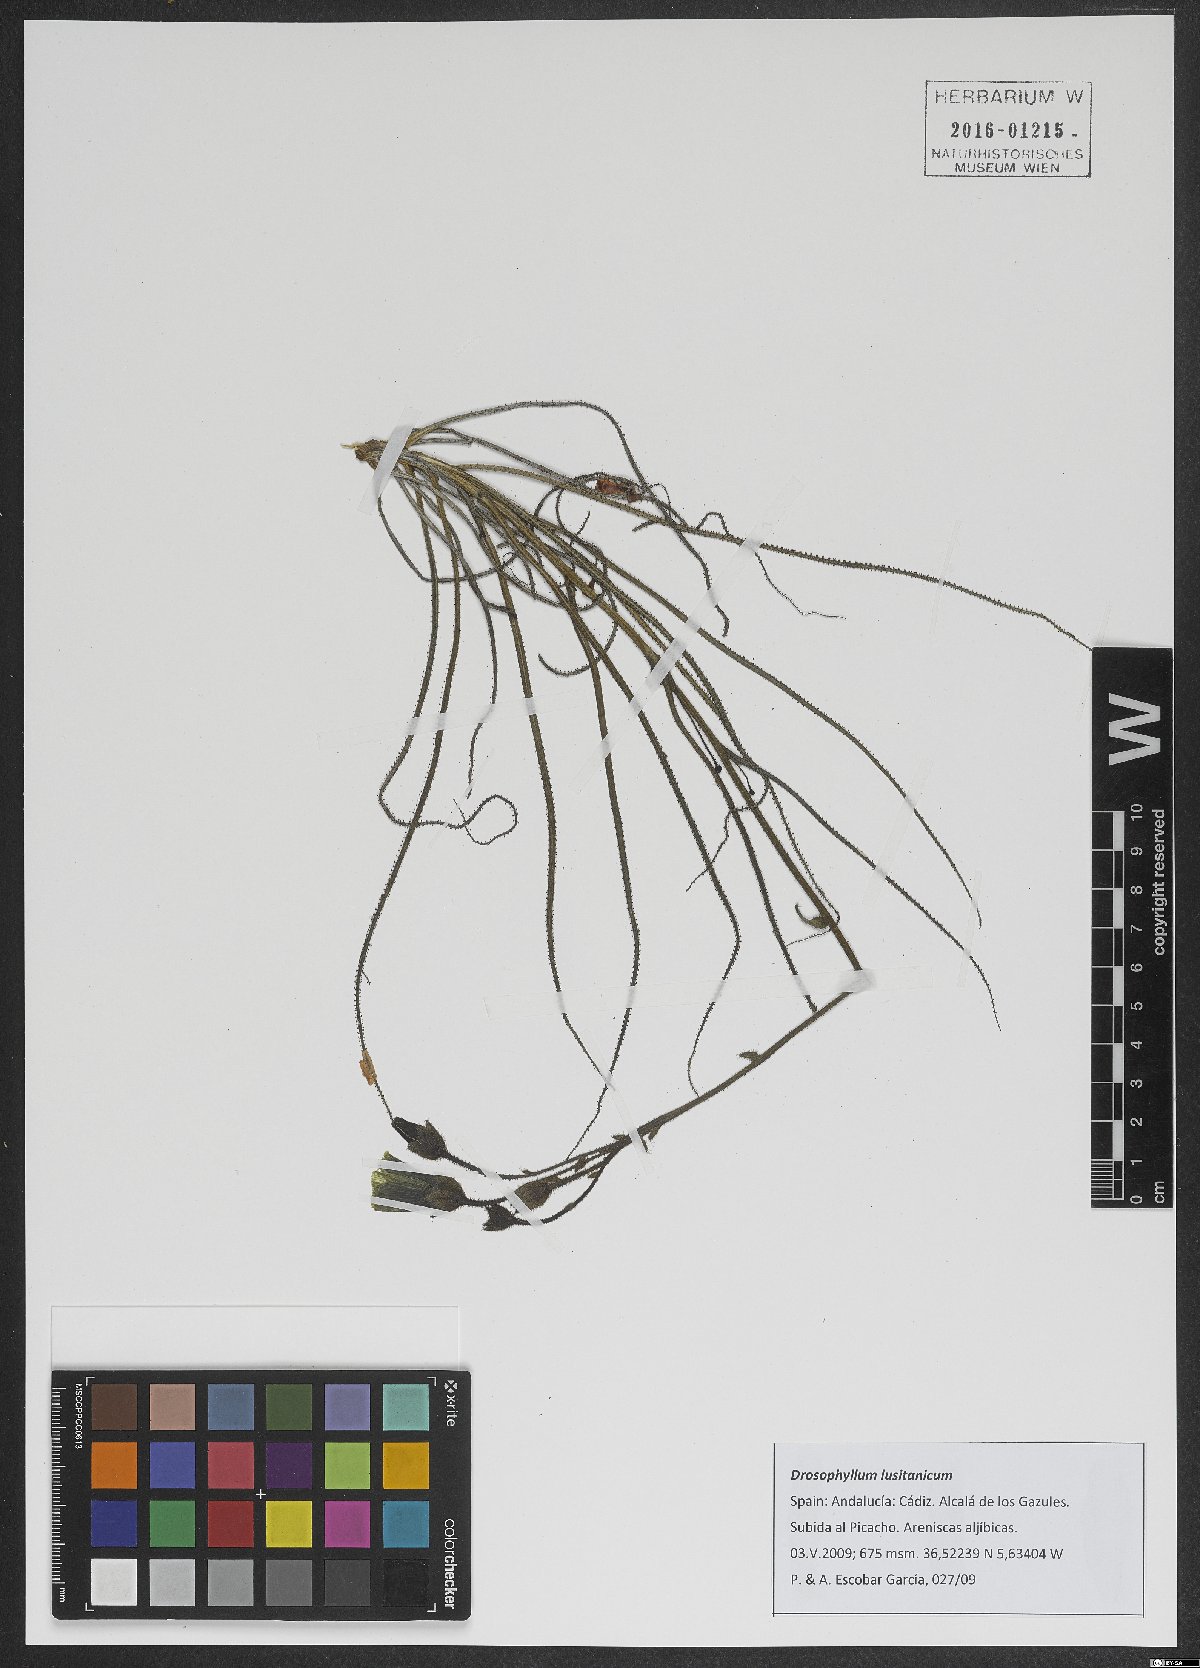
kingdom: Plantae
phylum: Tracheophyta
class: Magnoliopsida
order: Caryophyllales
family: Drosophyllaceae
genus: Drosophyllum
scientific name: Drosophyllum lusitanicum
